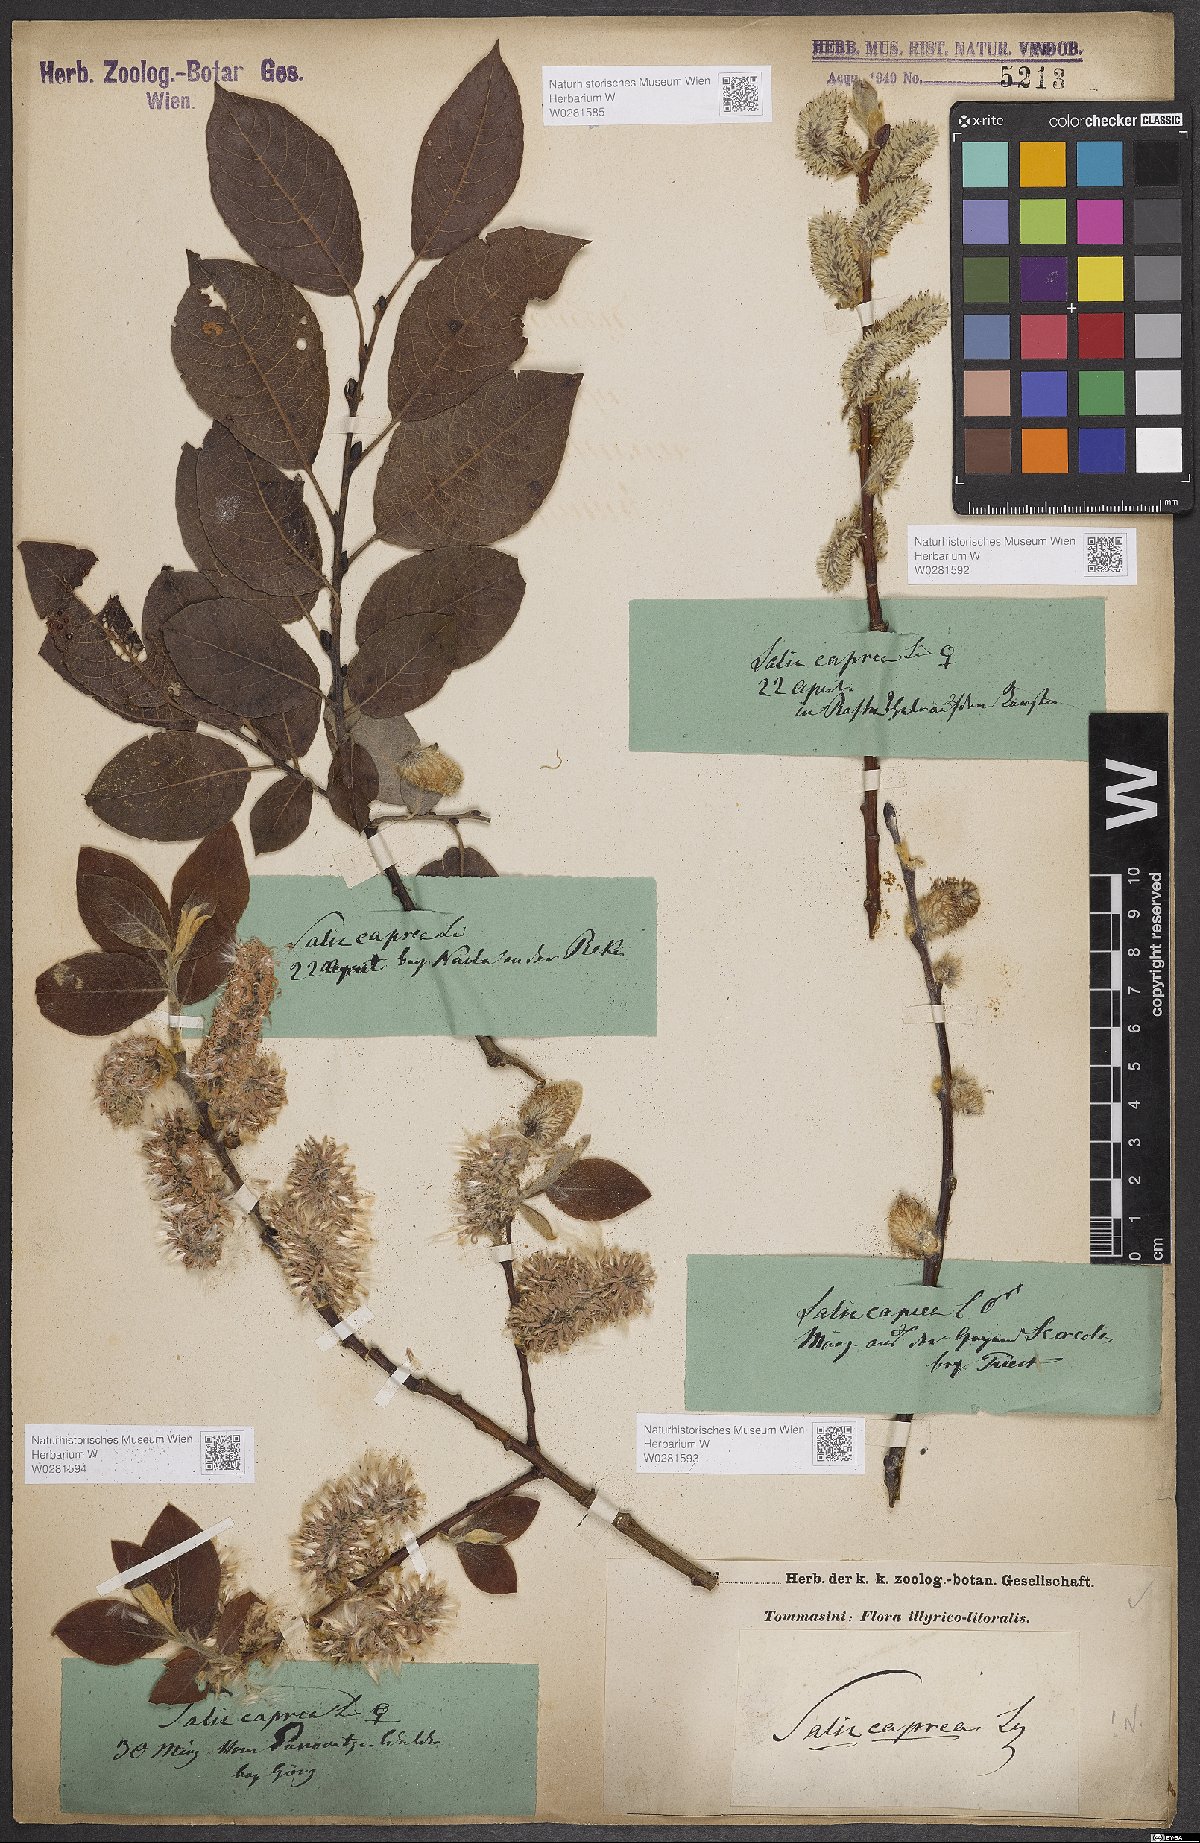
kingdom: Plantae
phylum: Tracheophyta
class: Magnoliopsida
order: Malpighiales
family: Salicaceae
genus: Salix
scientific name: Salix caprea
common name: Goat willow
